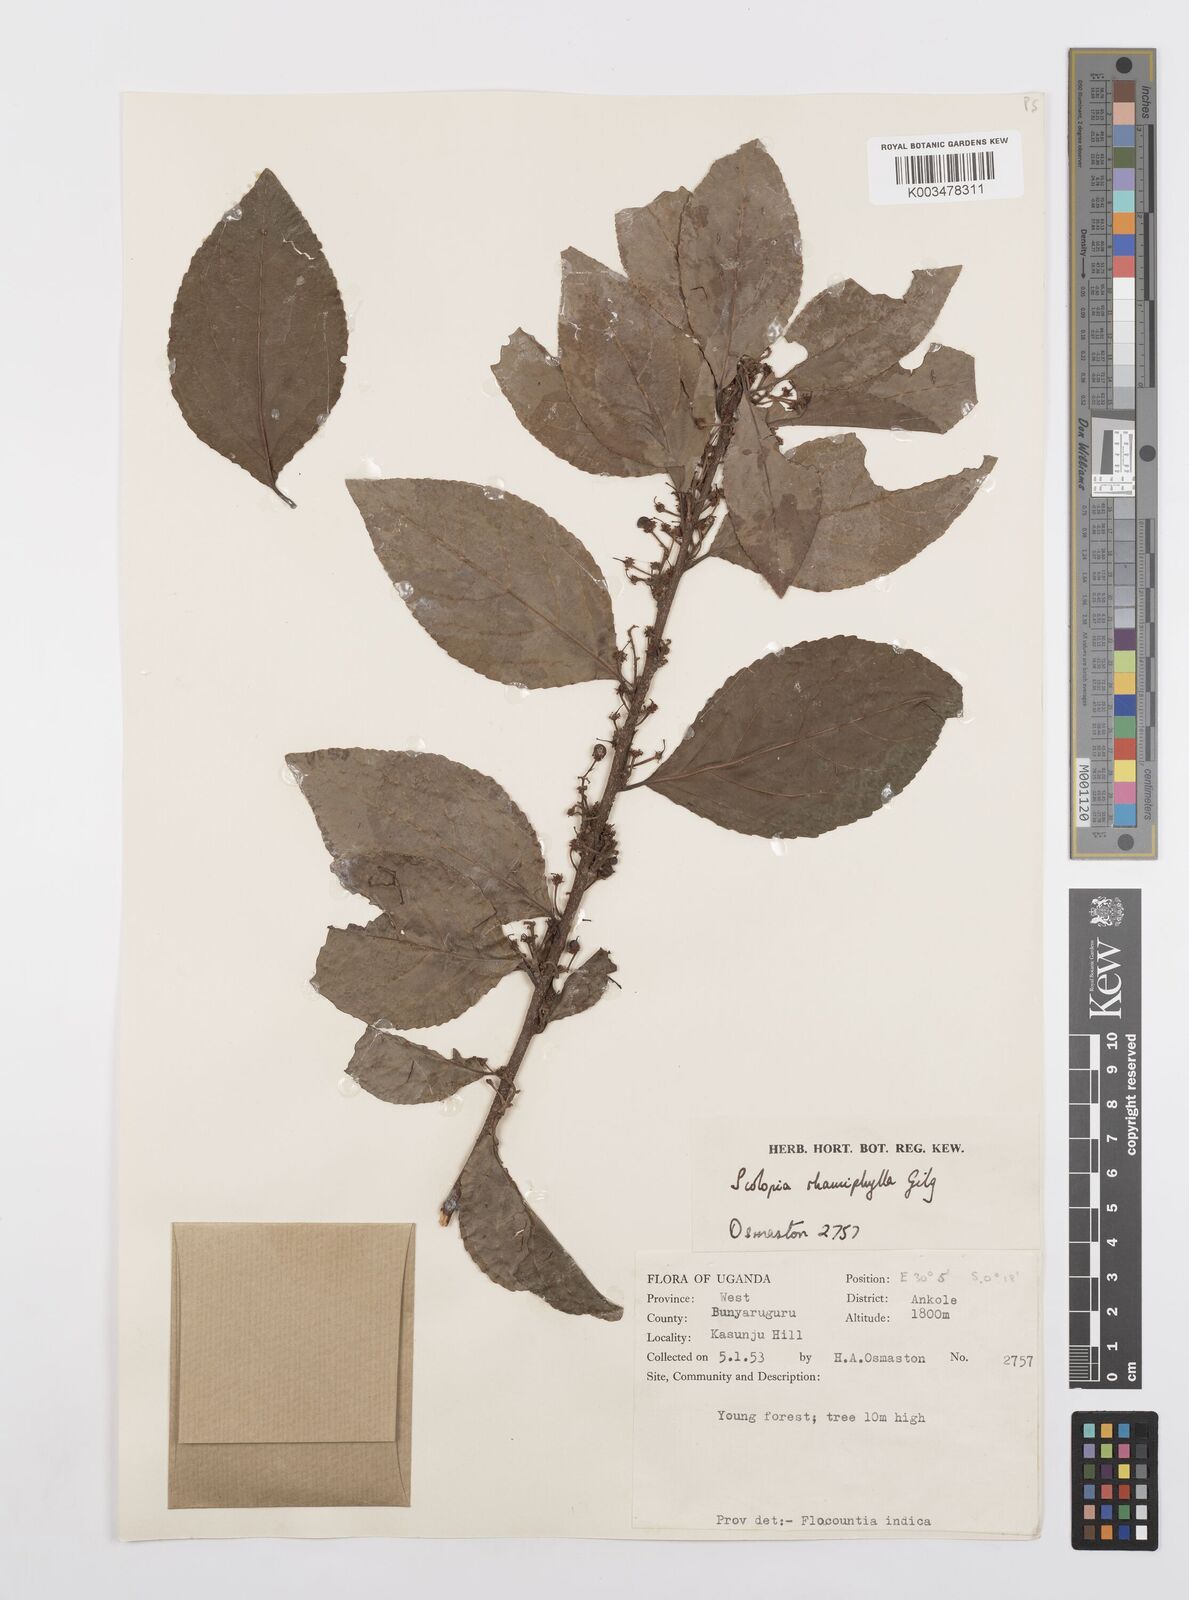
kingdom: Plantae
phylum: Tracheophyta
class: Magnoliopsida
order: Malpighiales
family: Salicaceae
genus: Scolopia
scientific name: Scolopia rhamniphylla
